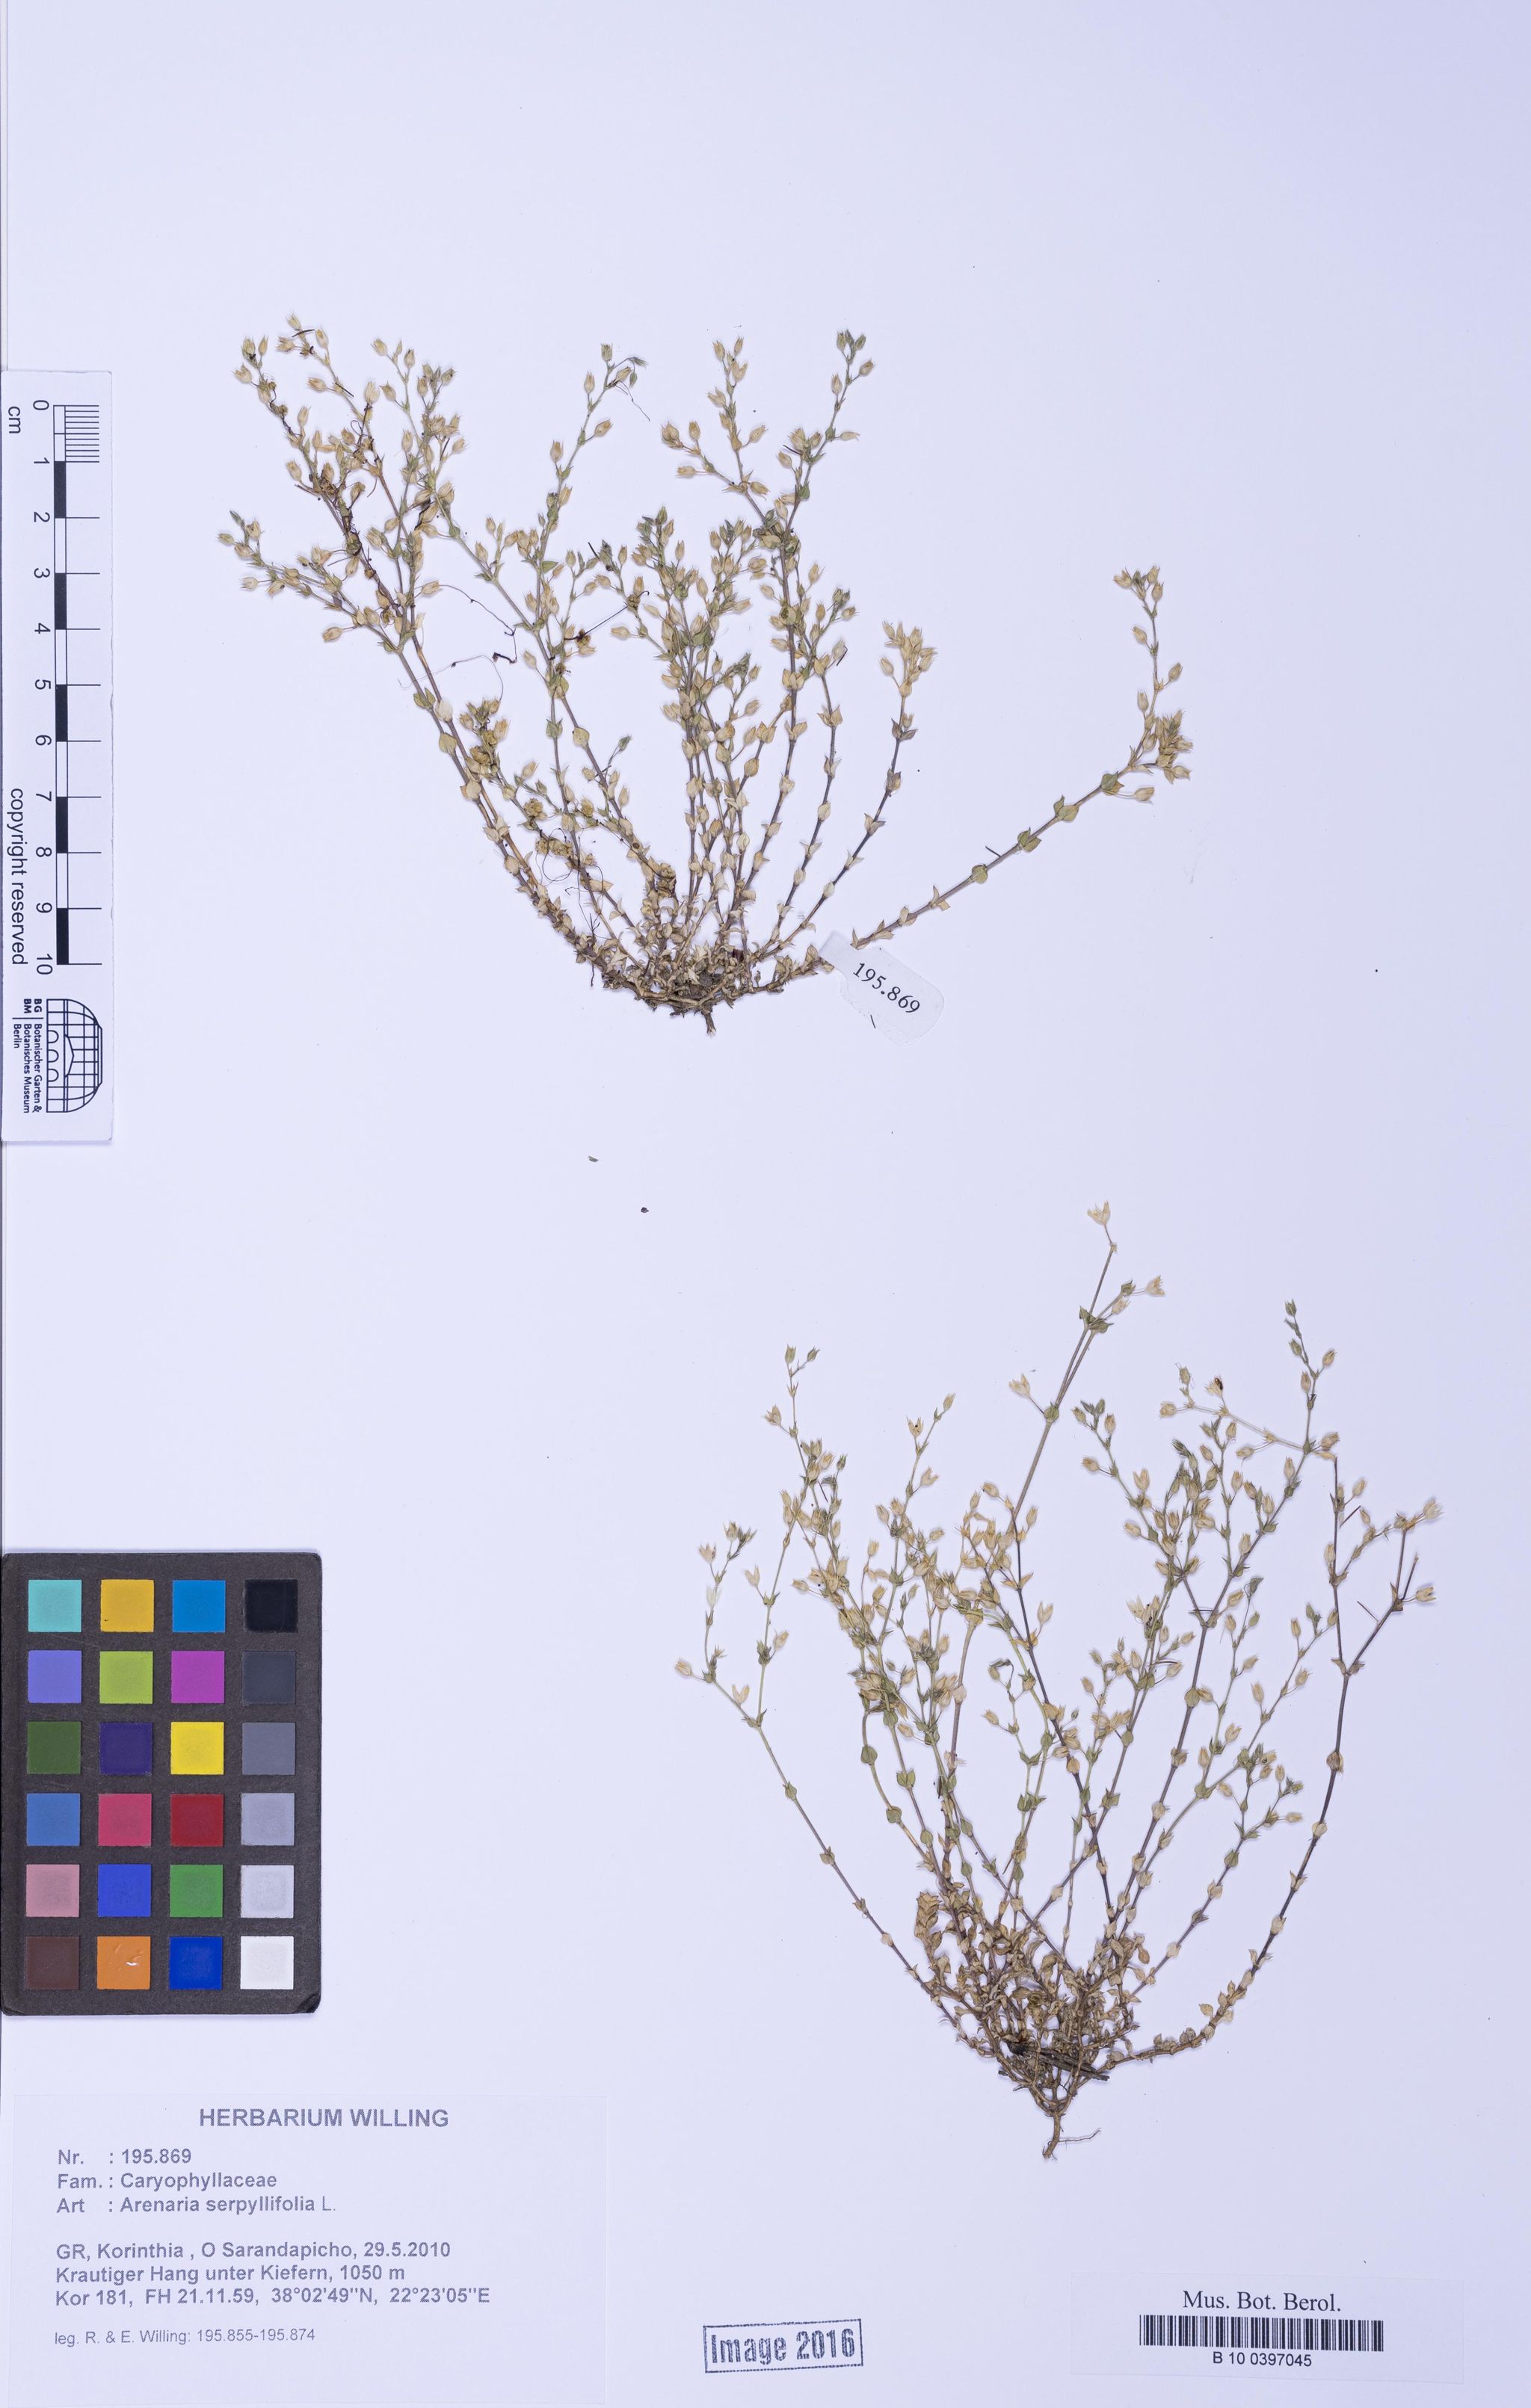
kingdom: Plantae
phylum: Tracheophyta
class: Magnoliopsida
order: Caryophyllales
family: Caryophyllaceae
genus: Arenaria
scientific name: Arenaria serpyllifolia
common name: Thyme-leaved sandwort
